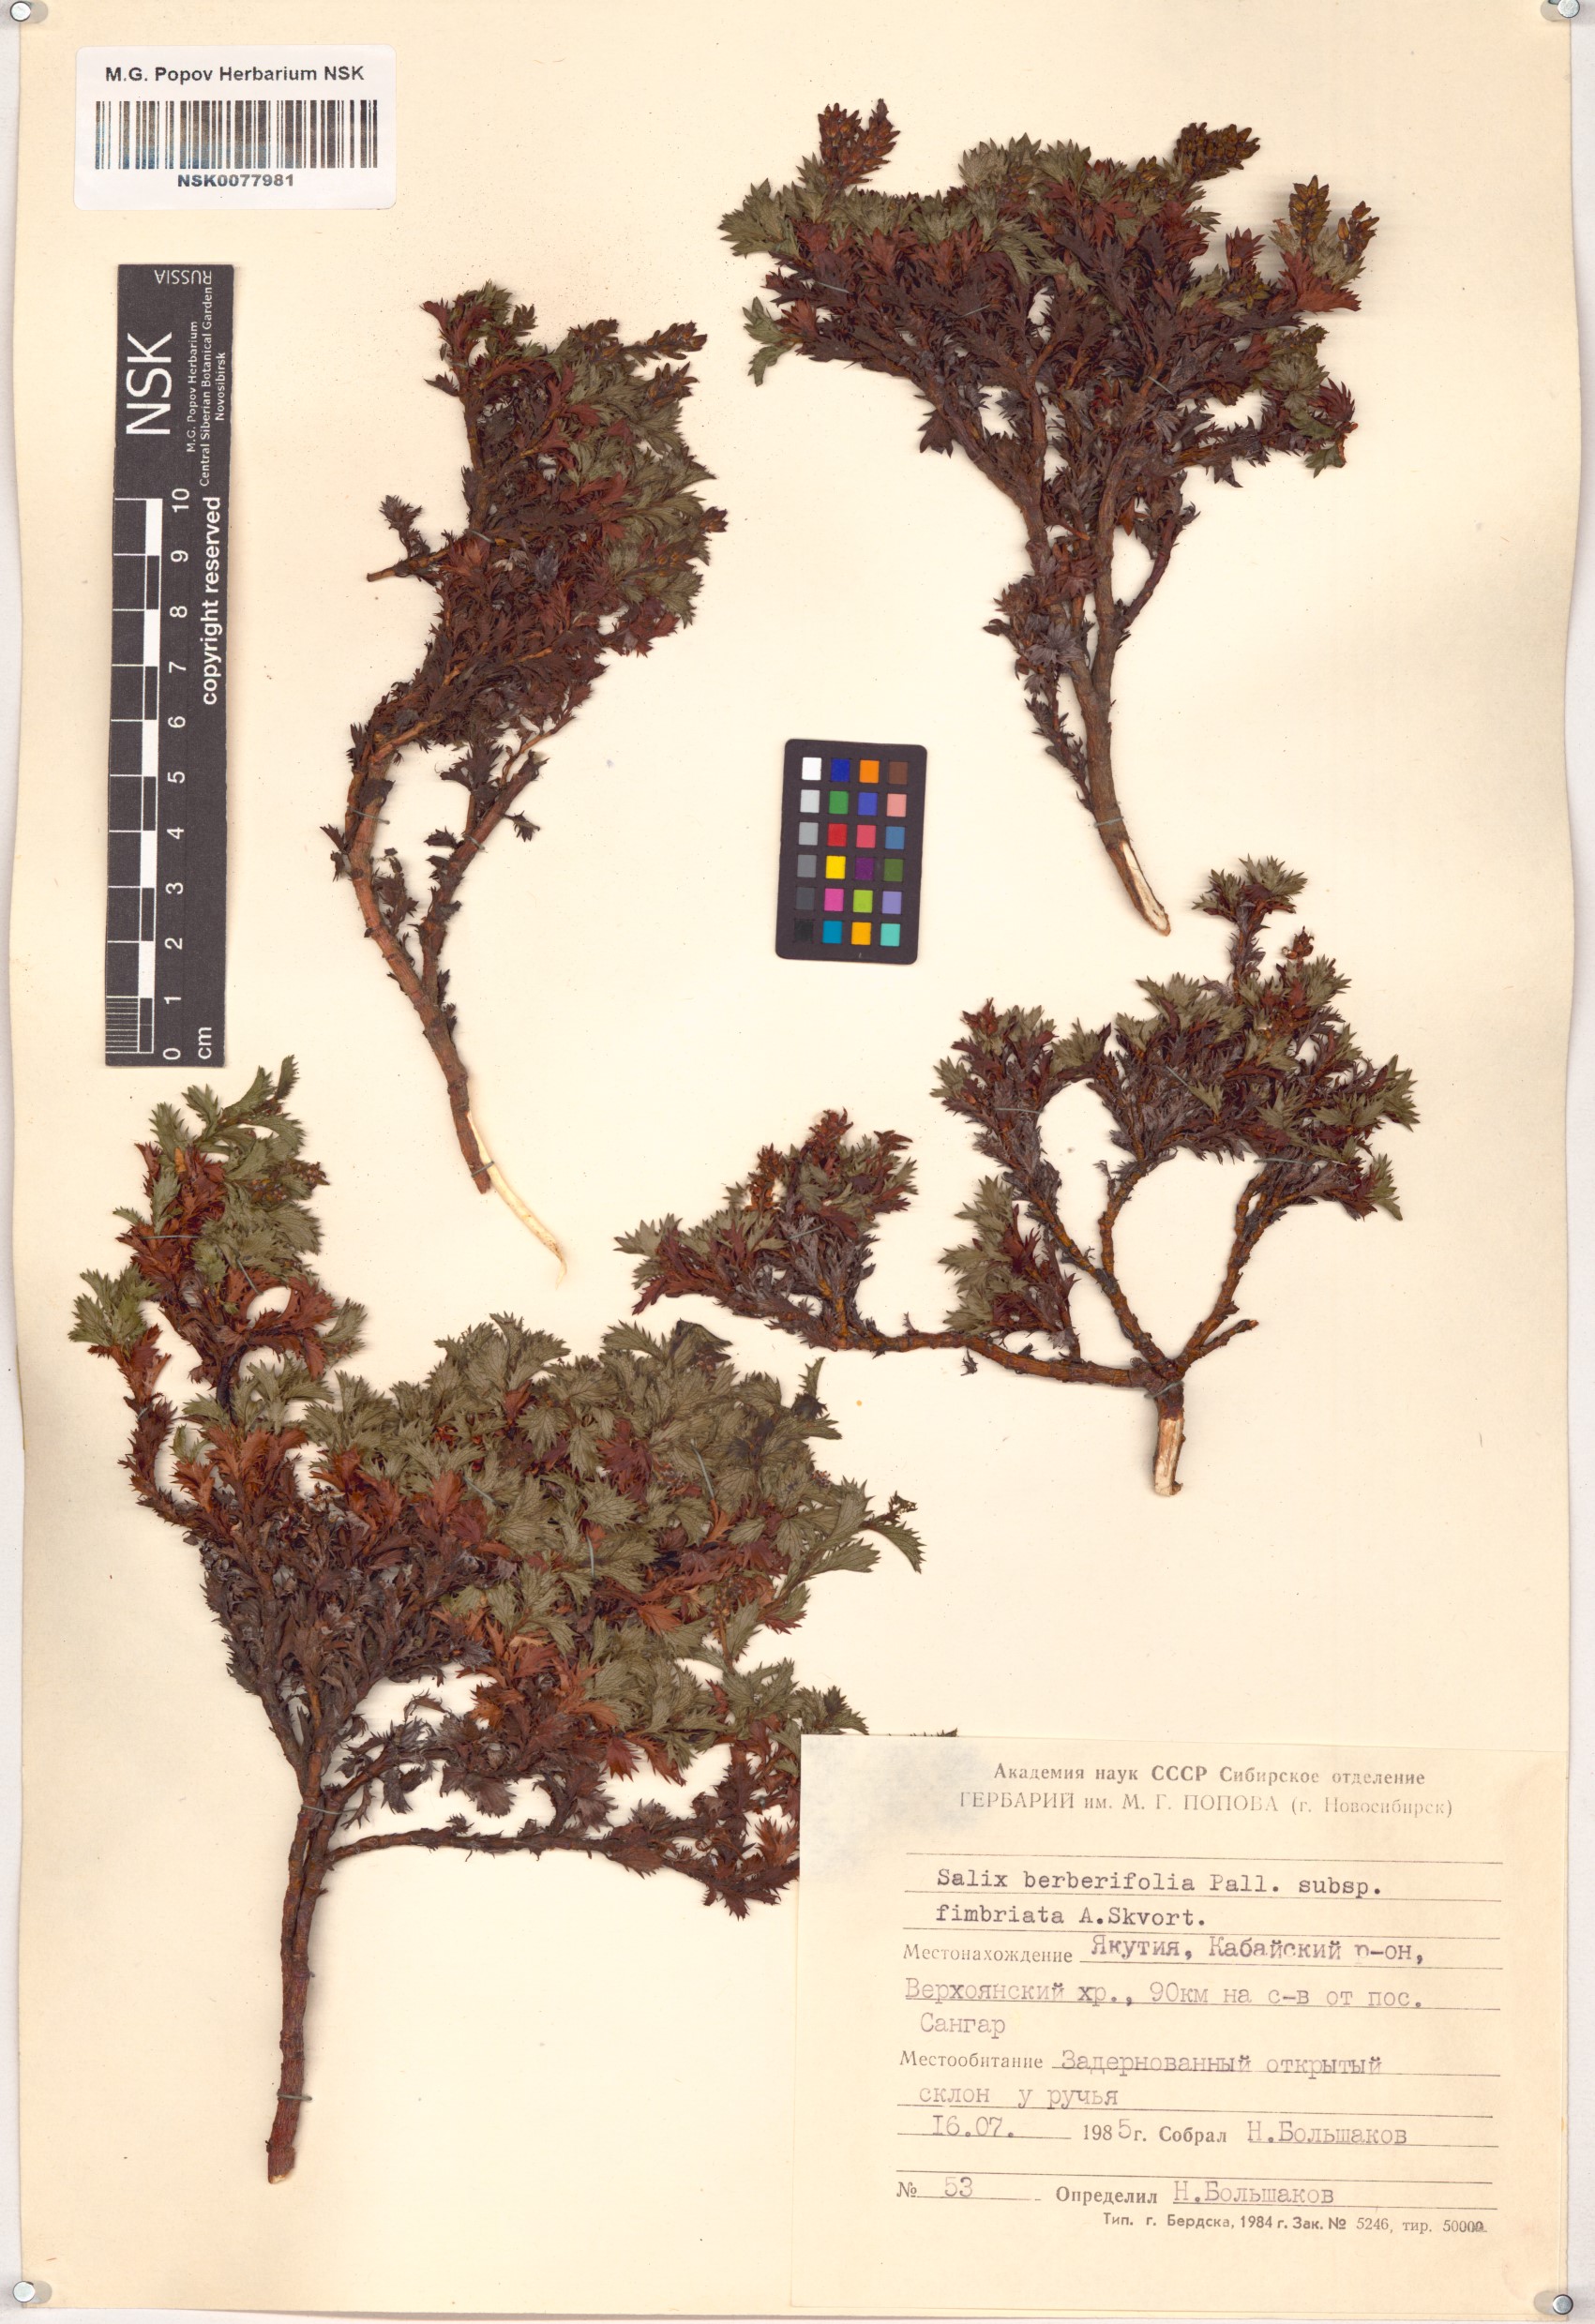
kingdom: Plantae
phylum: Tracheophyta
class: Magnoliopsida
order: Malpighiales
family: Salicaceae
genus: Salix
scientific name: Salix berberifolia
